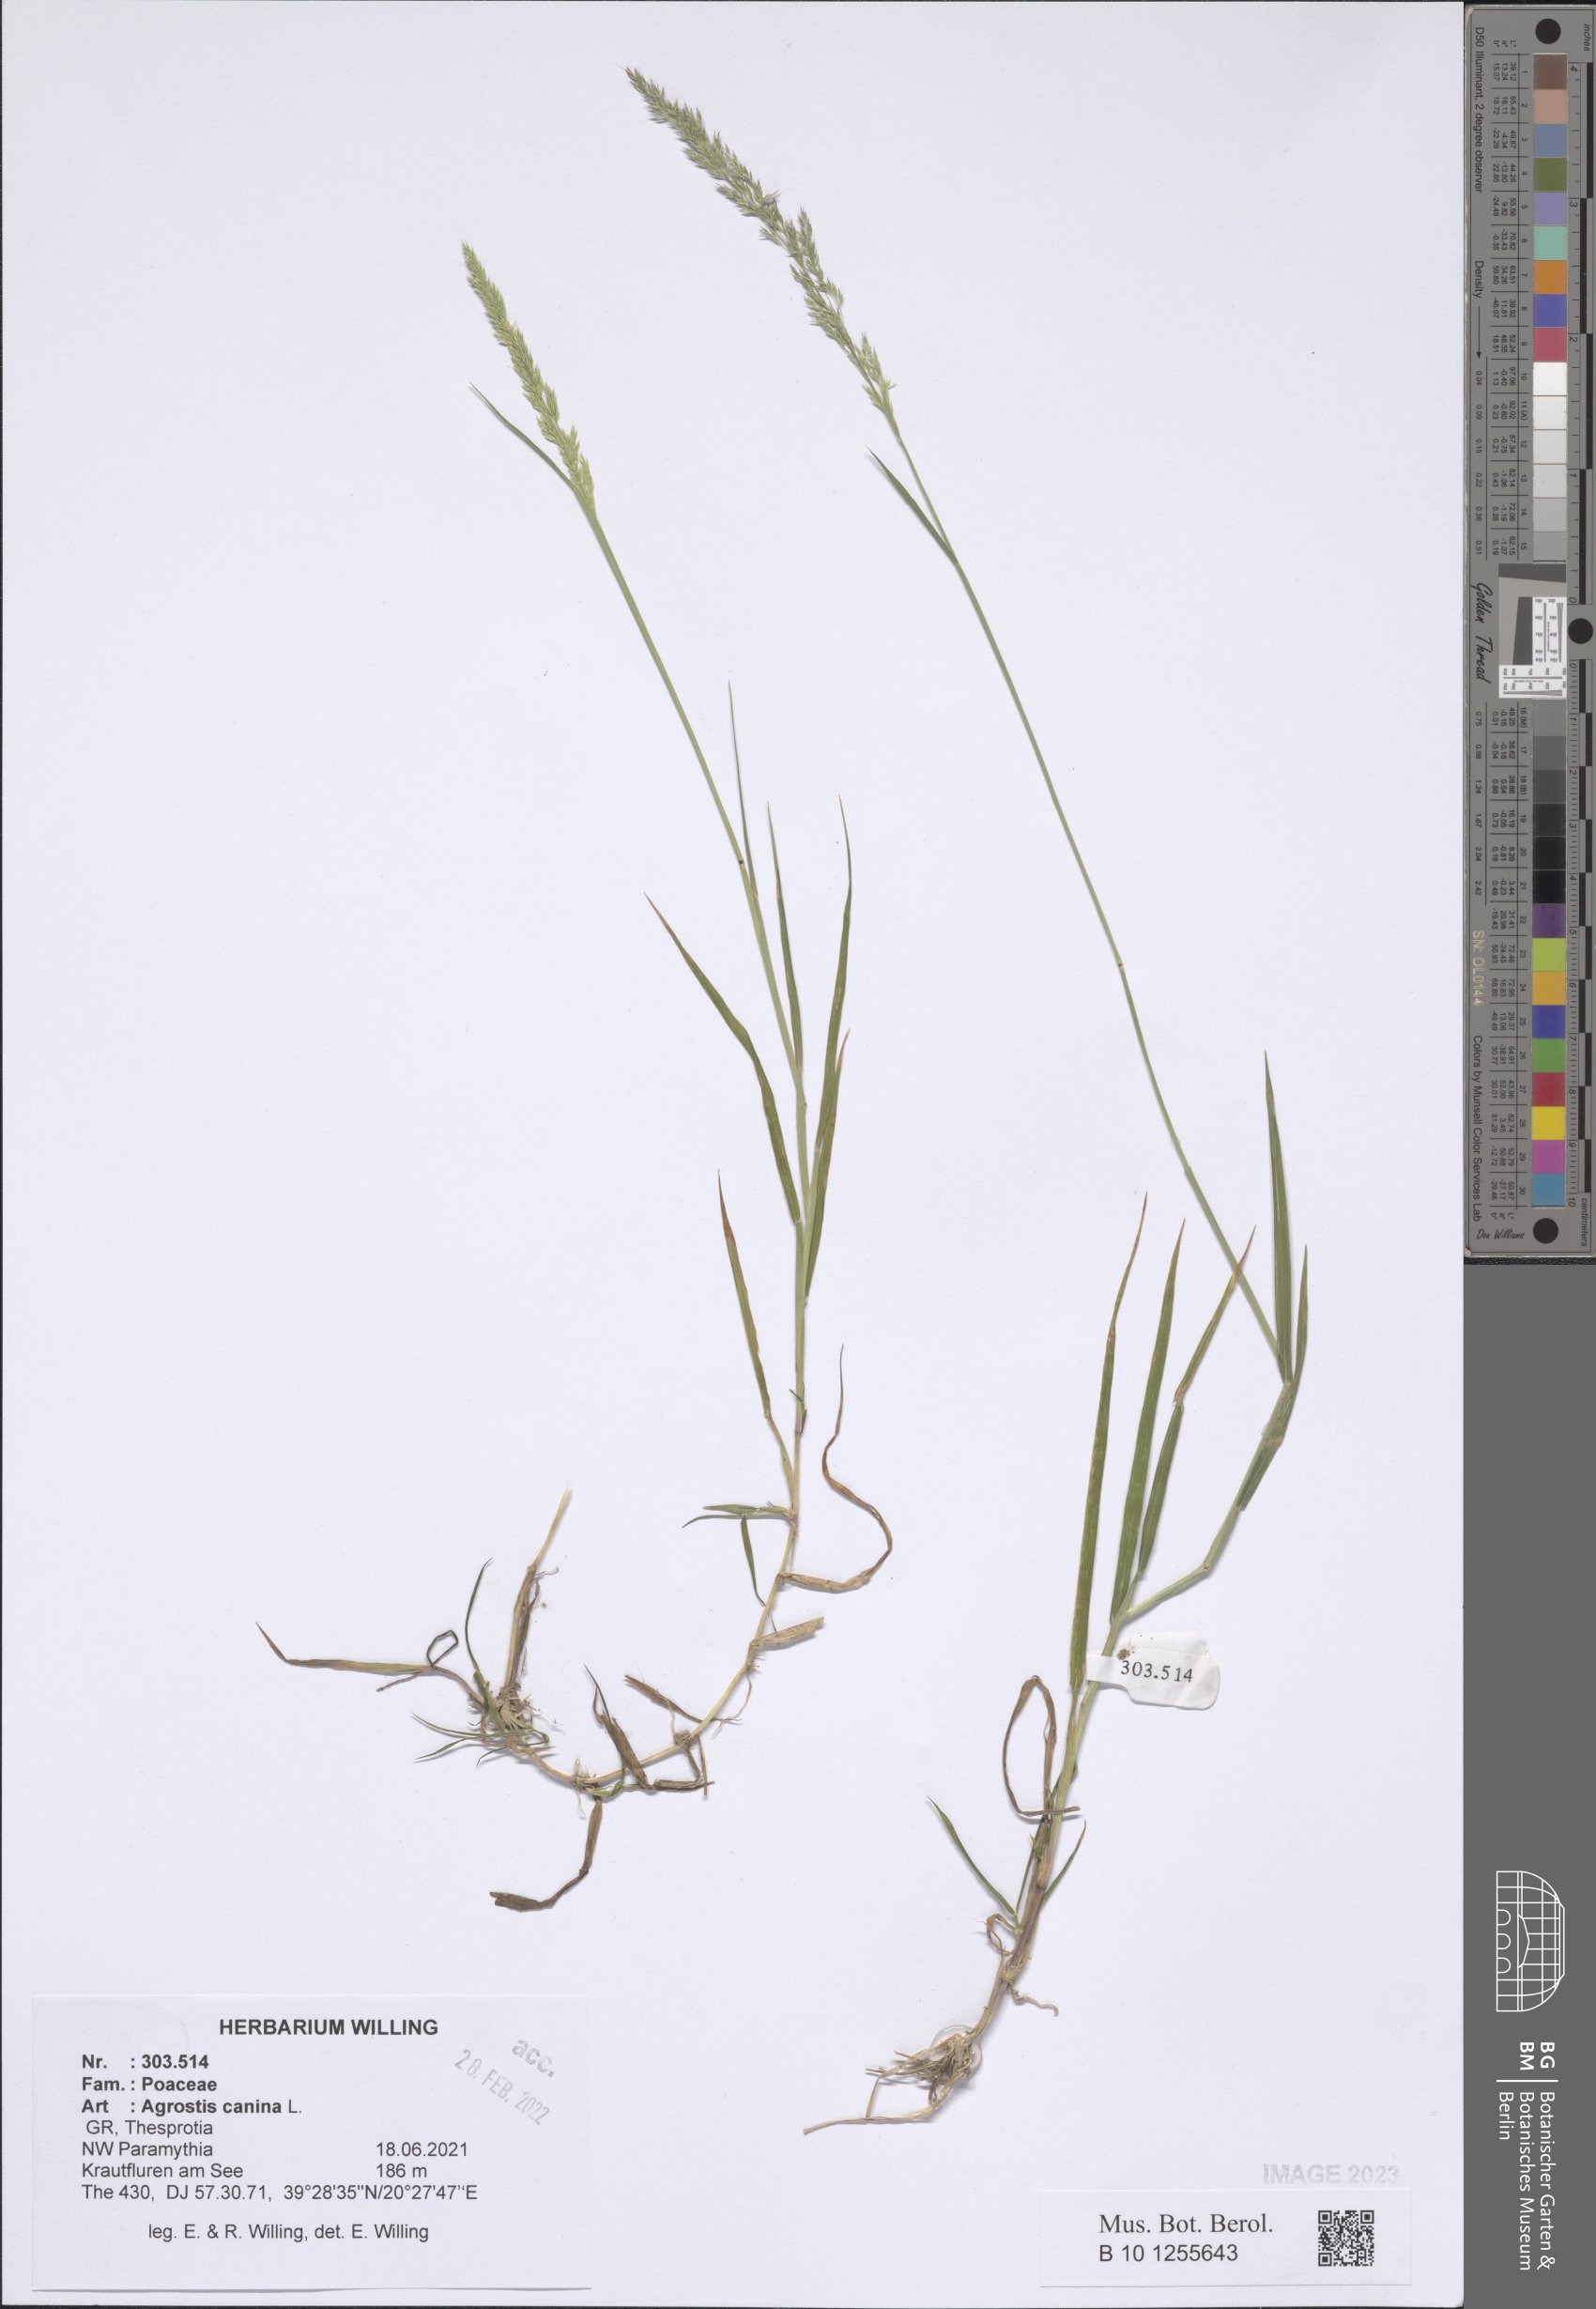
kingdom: Plantae
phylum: Tracheophyta
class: Liliopsida
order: Poales
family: Poaceae
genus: Agrostis
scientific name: Agrostis canina
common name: Velvet bent
